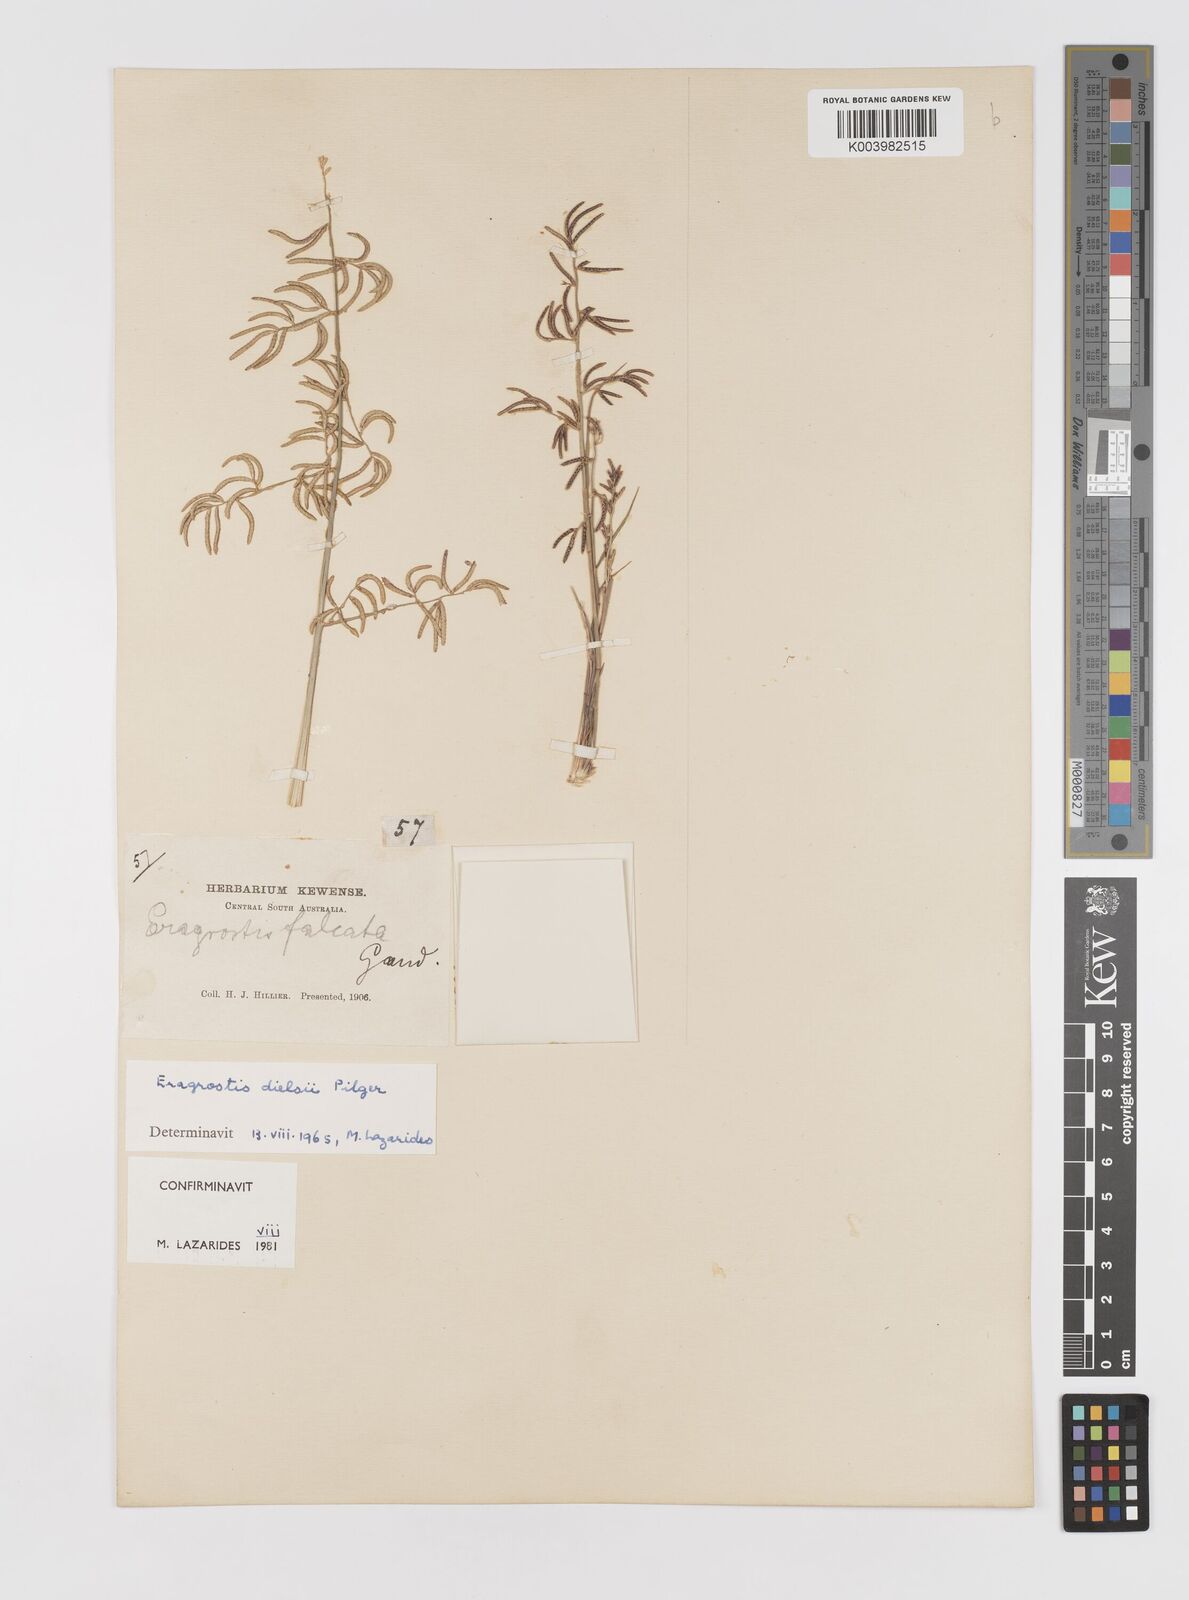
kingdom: Plantae
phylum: Tracheophyta
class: Liliopsida
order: Poales
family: Poaceae
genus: Eragrostis
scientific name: Eragrostis dielsii
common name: Lovegrass
